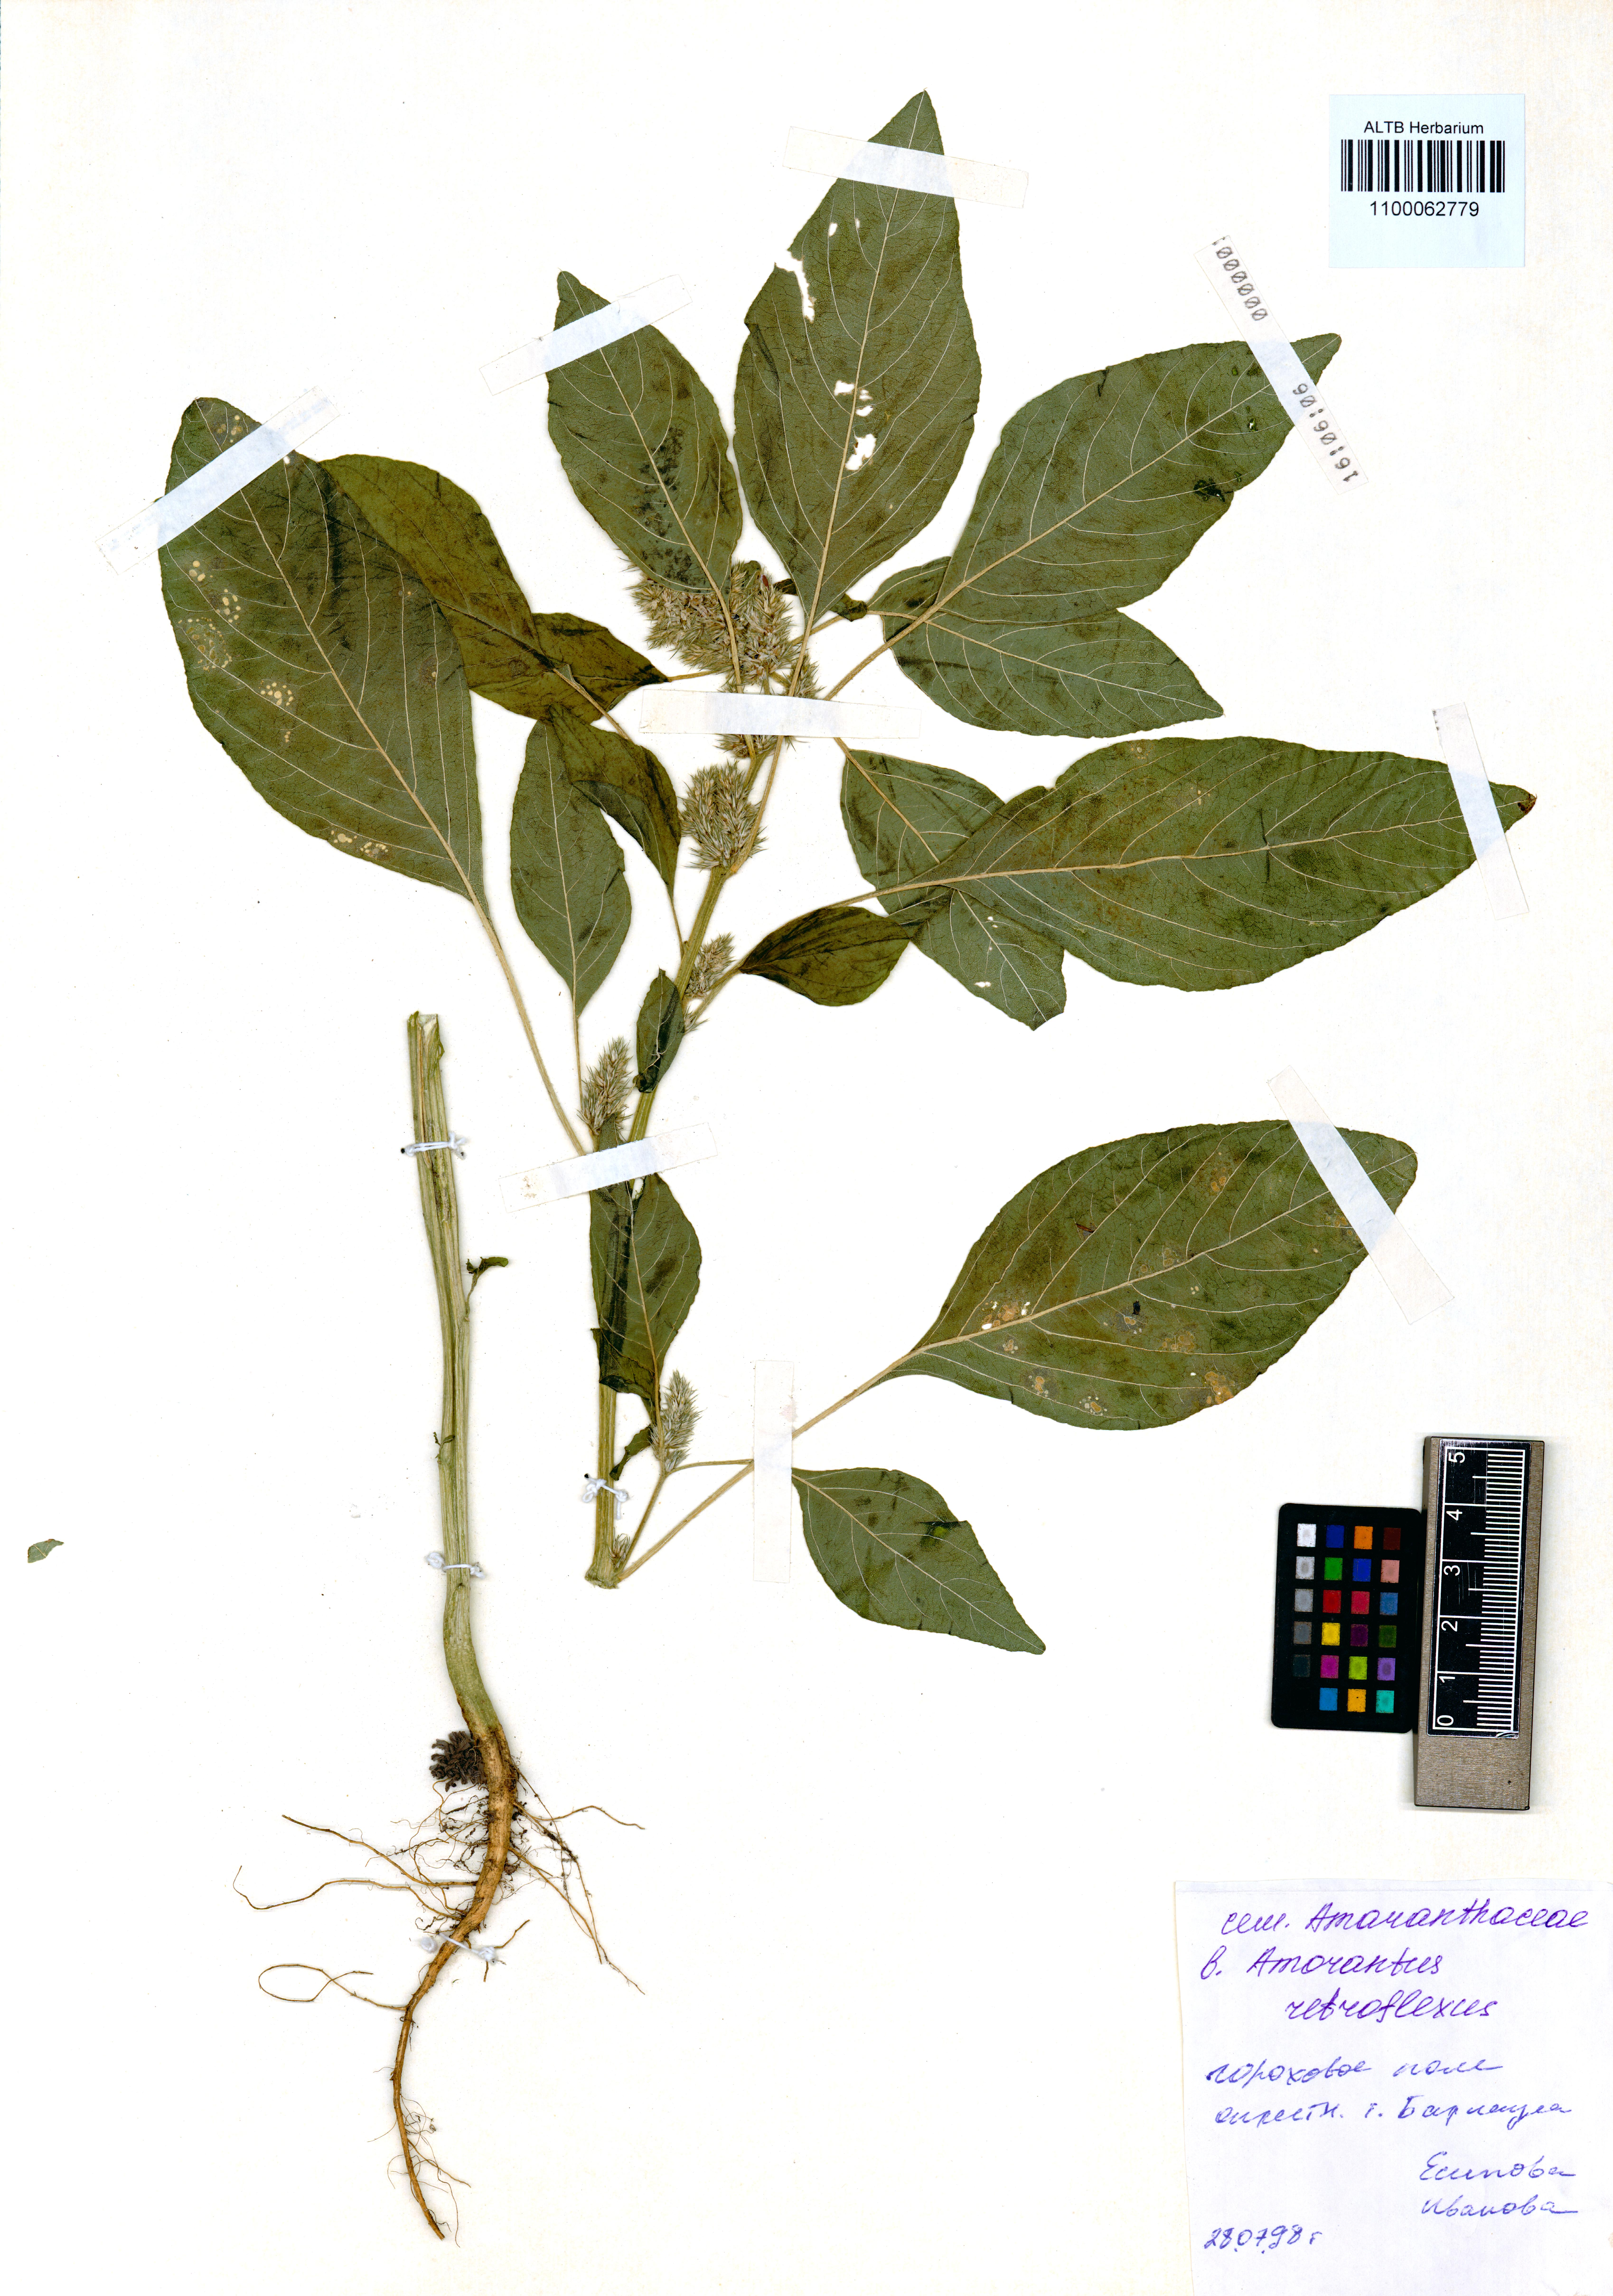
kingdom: Plantae
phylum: Tracheophyta
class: Magnoliopsida
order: Caryophyllales
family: Amaranthaceae
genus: Amaranthus
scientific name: Amaranthus retroflexus
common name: Redroot amaranth
